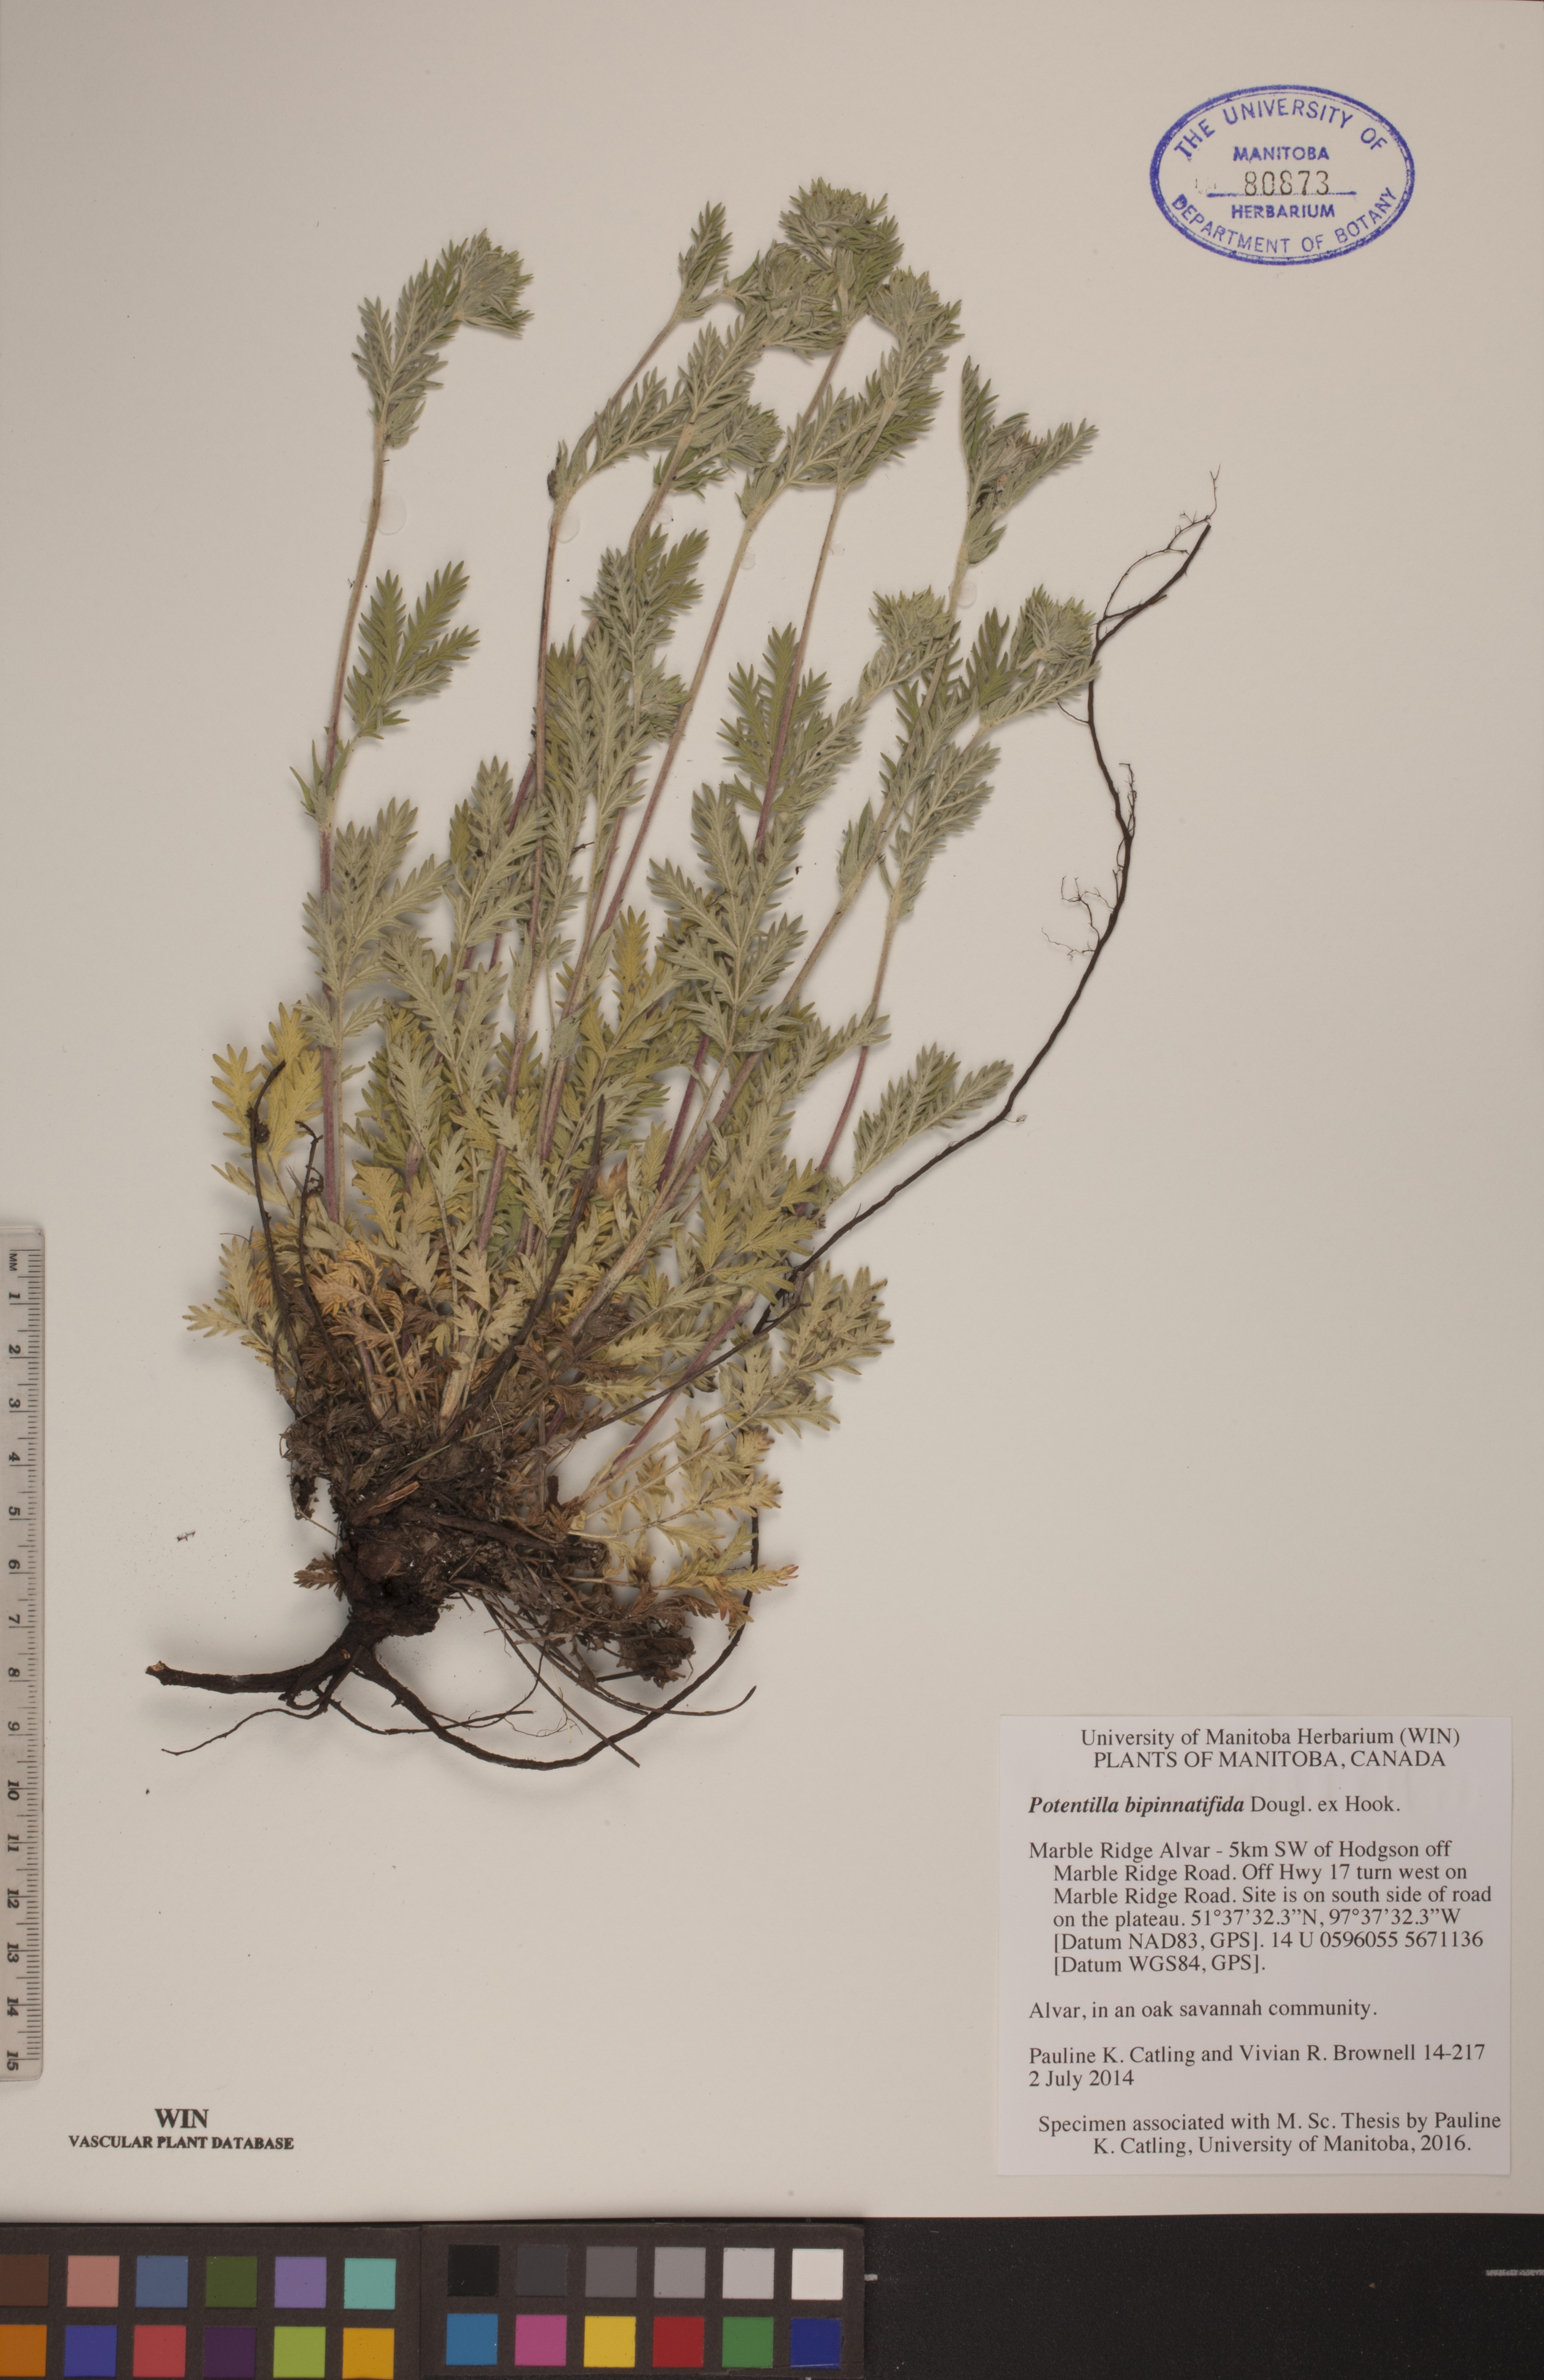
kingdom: Plantae
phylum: Tracheophyta
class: Magnoliopsida
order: Rosales
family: Rosaceae
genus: Potentilla
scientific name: Potentilla bipinnatifida
